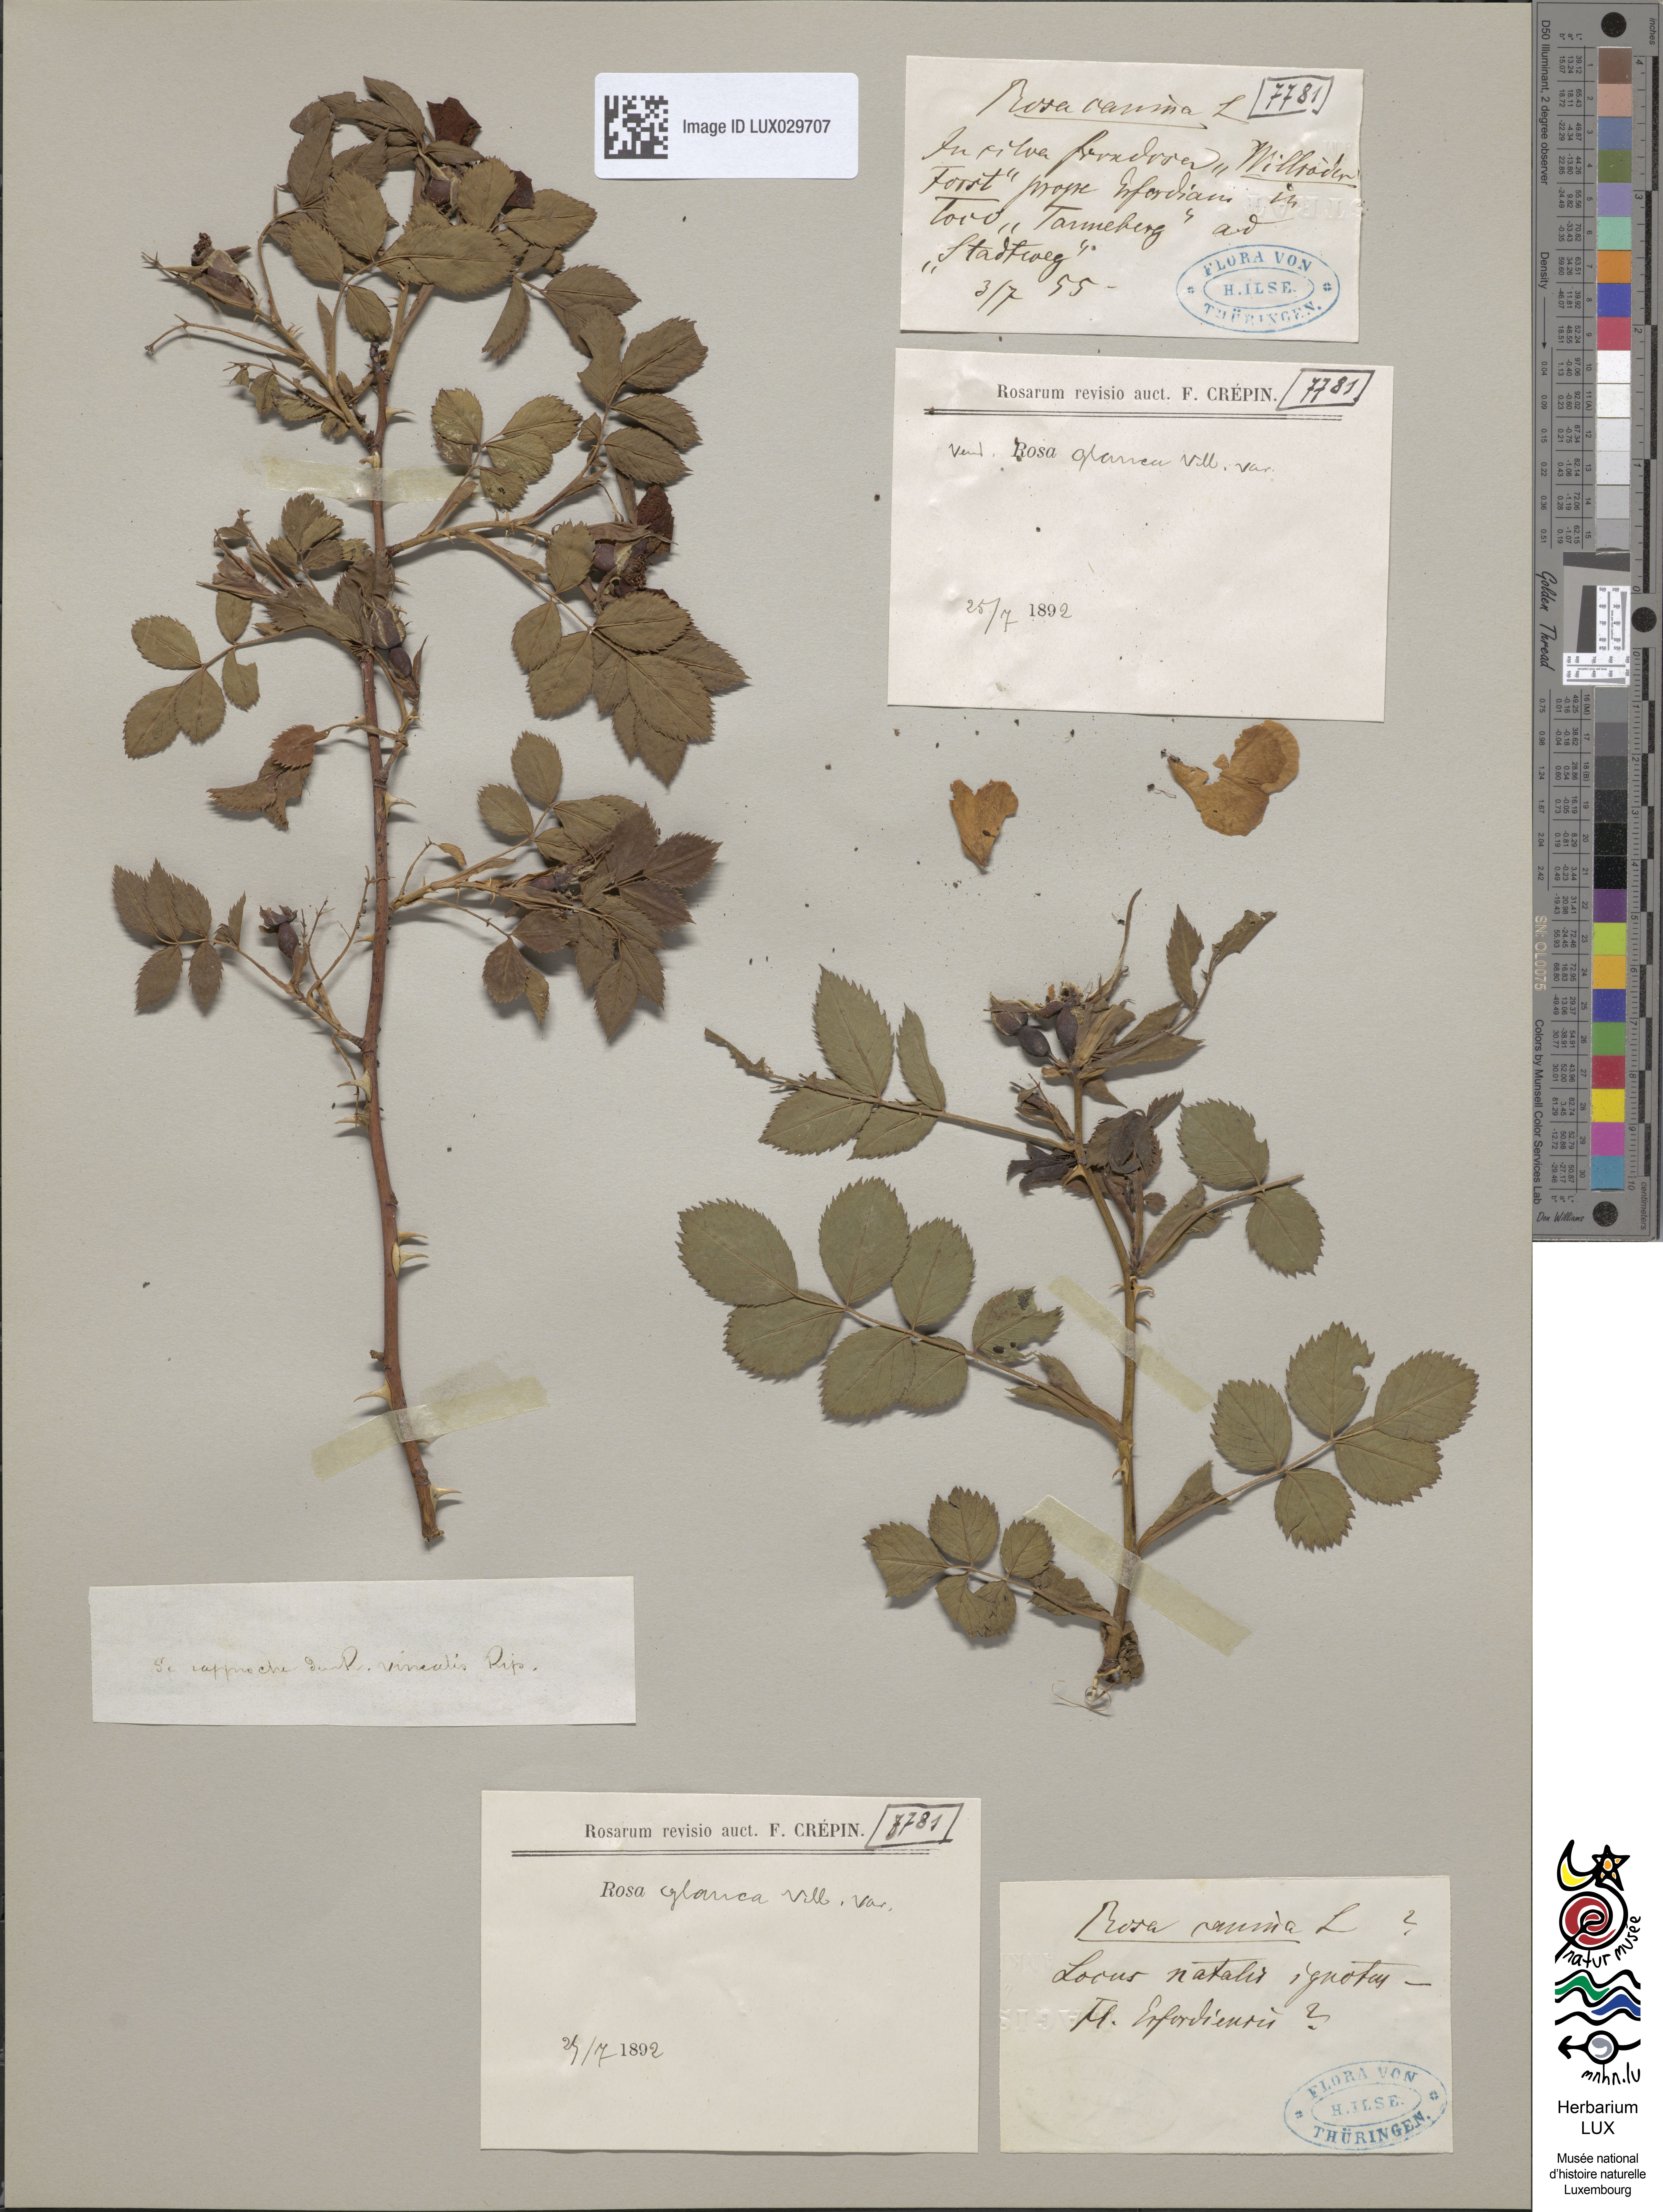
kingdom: Plantae
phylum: Tracheophyta
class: Magnoliopsida
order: Rosales
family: Rosaceae
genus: Rosa
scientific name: Rosa dumalis
